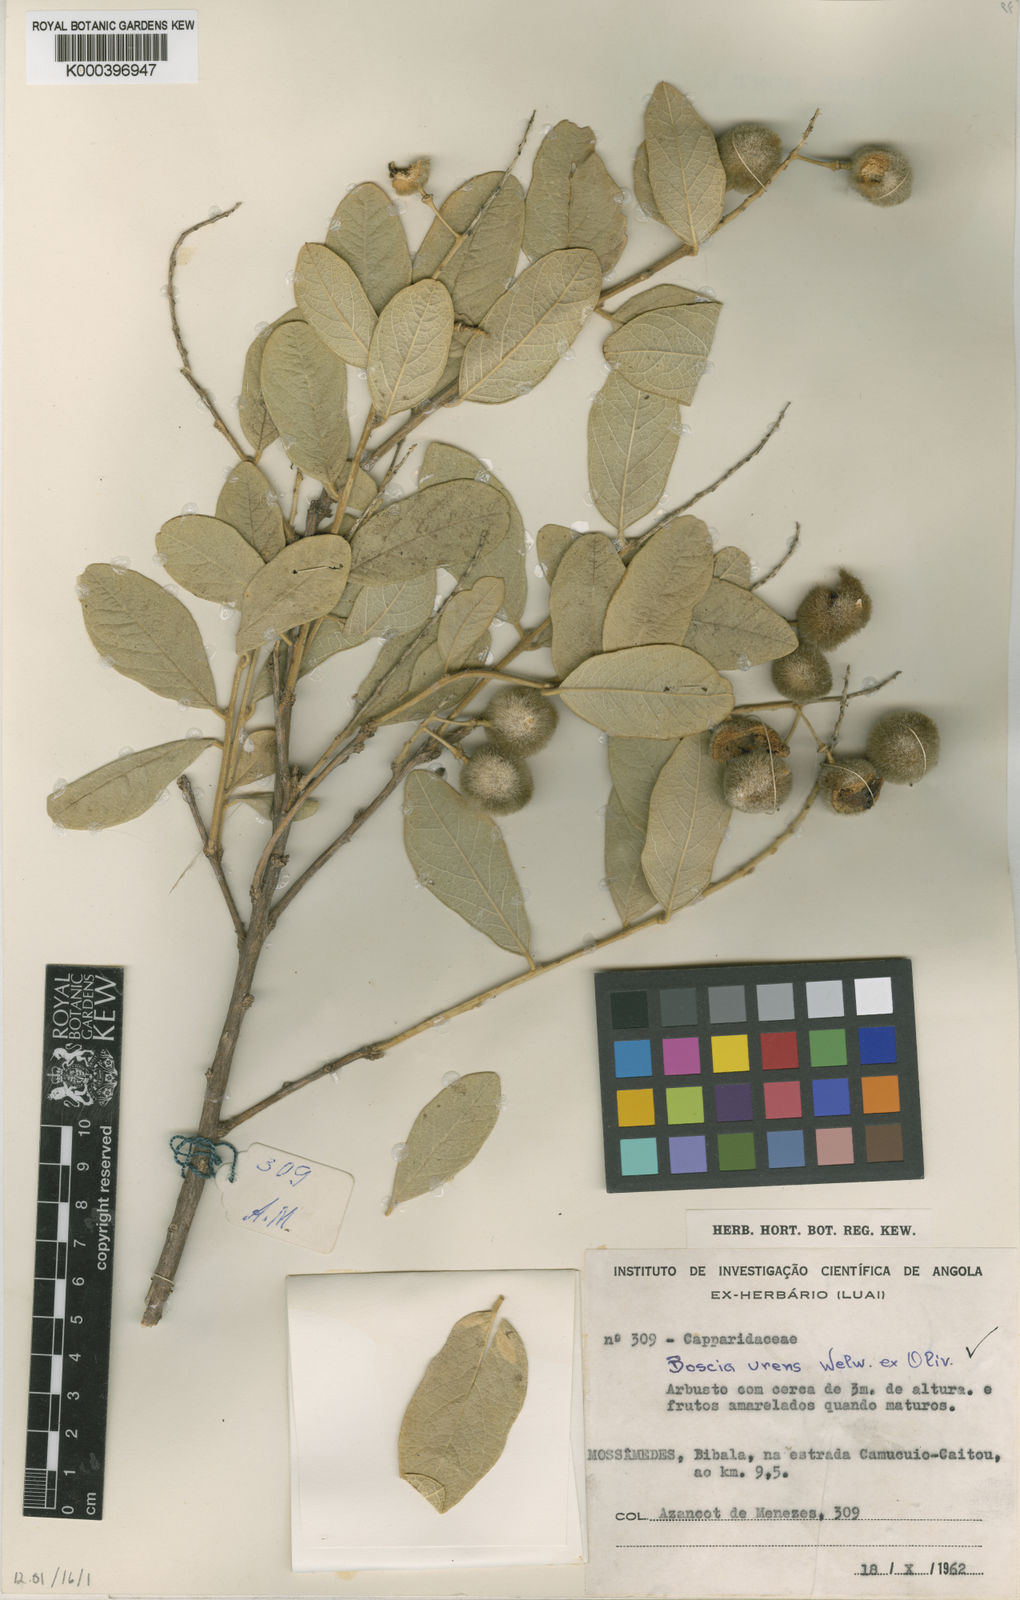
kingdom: Plantae
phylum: Tracheophyta
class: Magnoliopsida
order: Brassicales
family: Capparaceae
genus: Boscia
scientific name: Boscia
